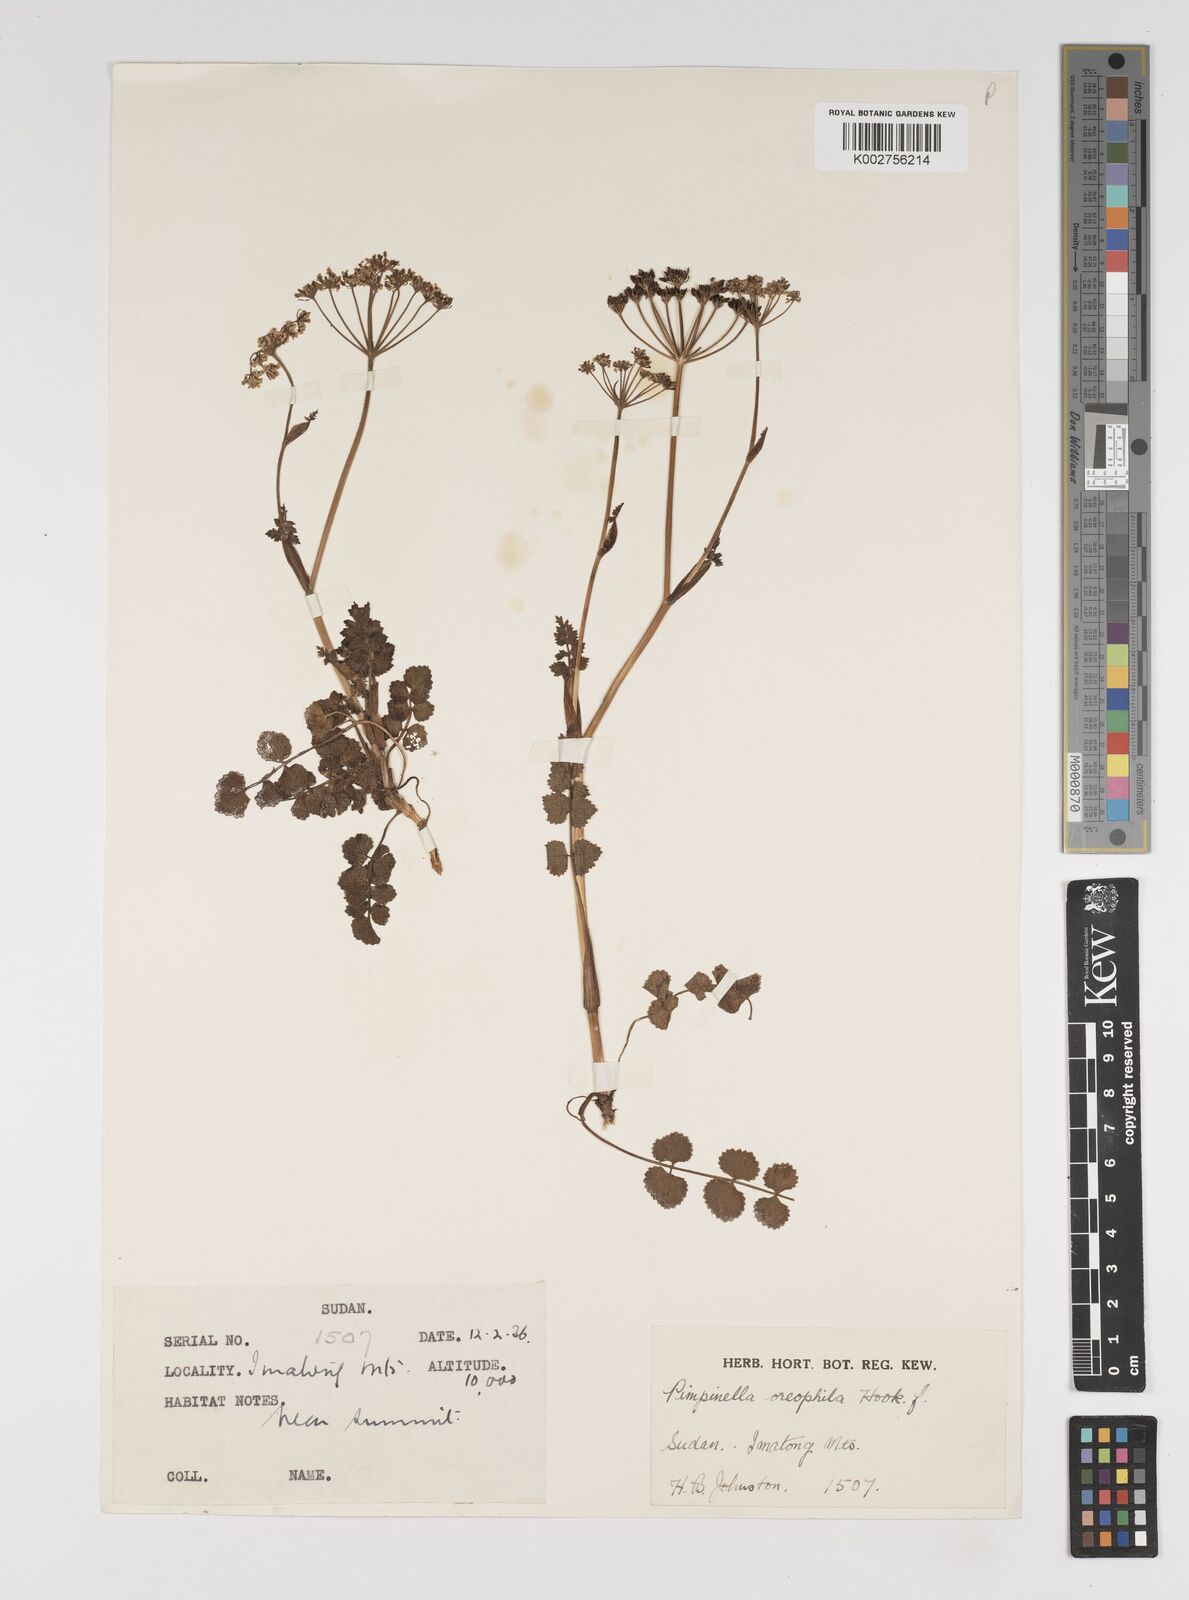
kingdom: Plantae
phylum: Tracheophyta
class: Magnoliopsida
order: Apiales
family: Apiaceae
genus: Pimpinella
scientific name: Pimpinella oreophila
